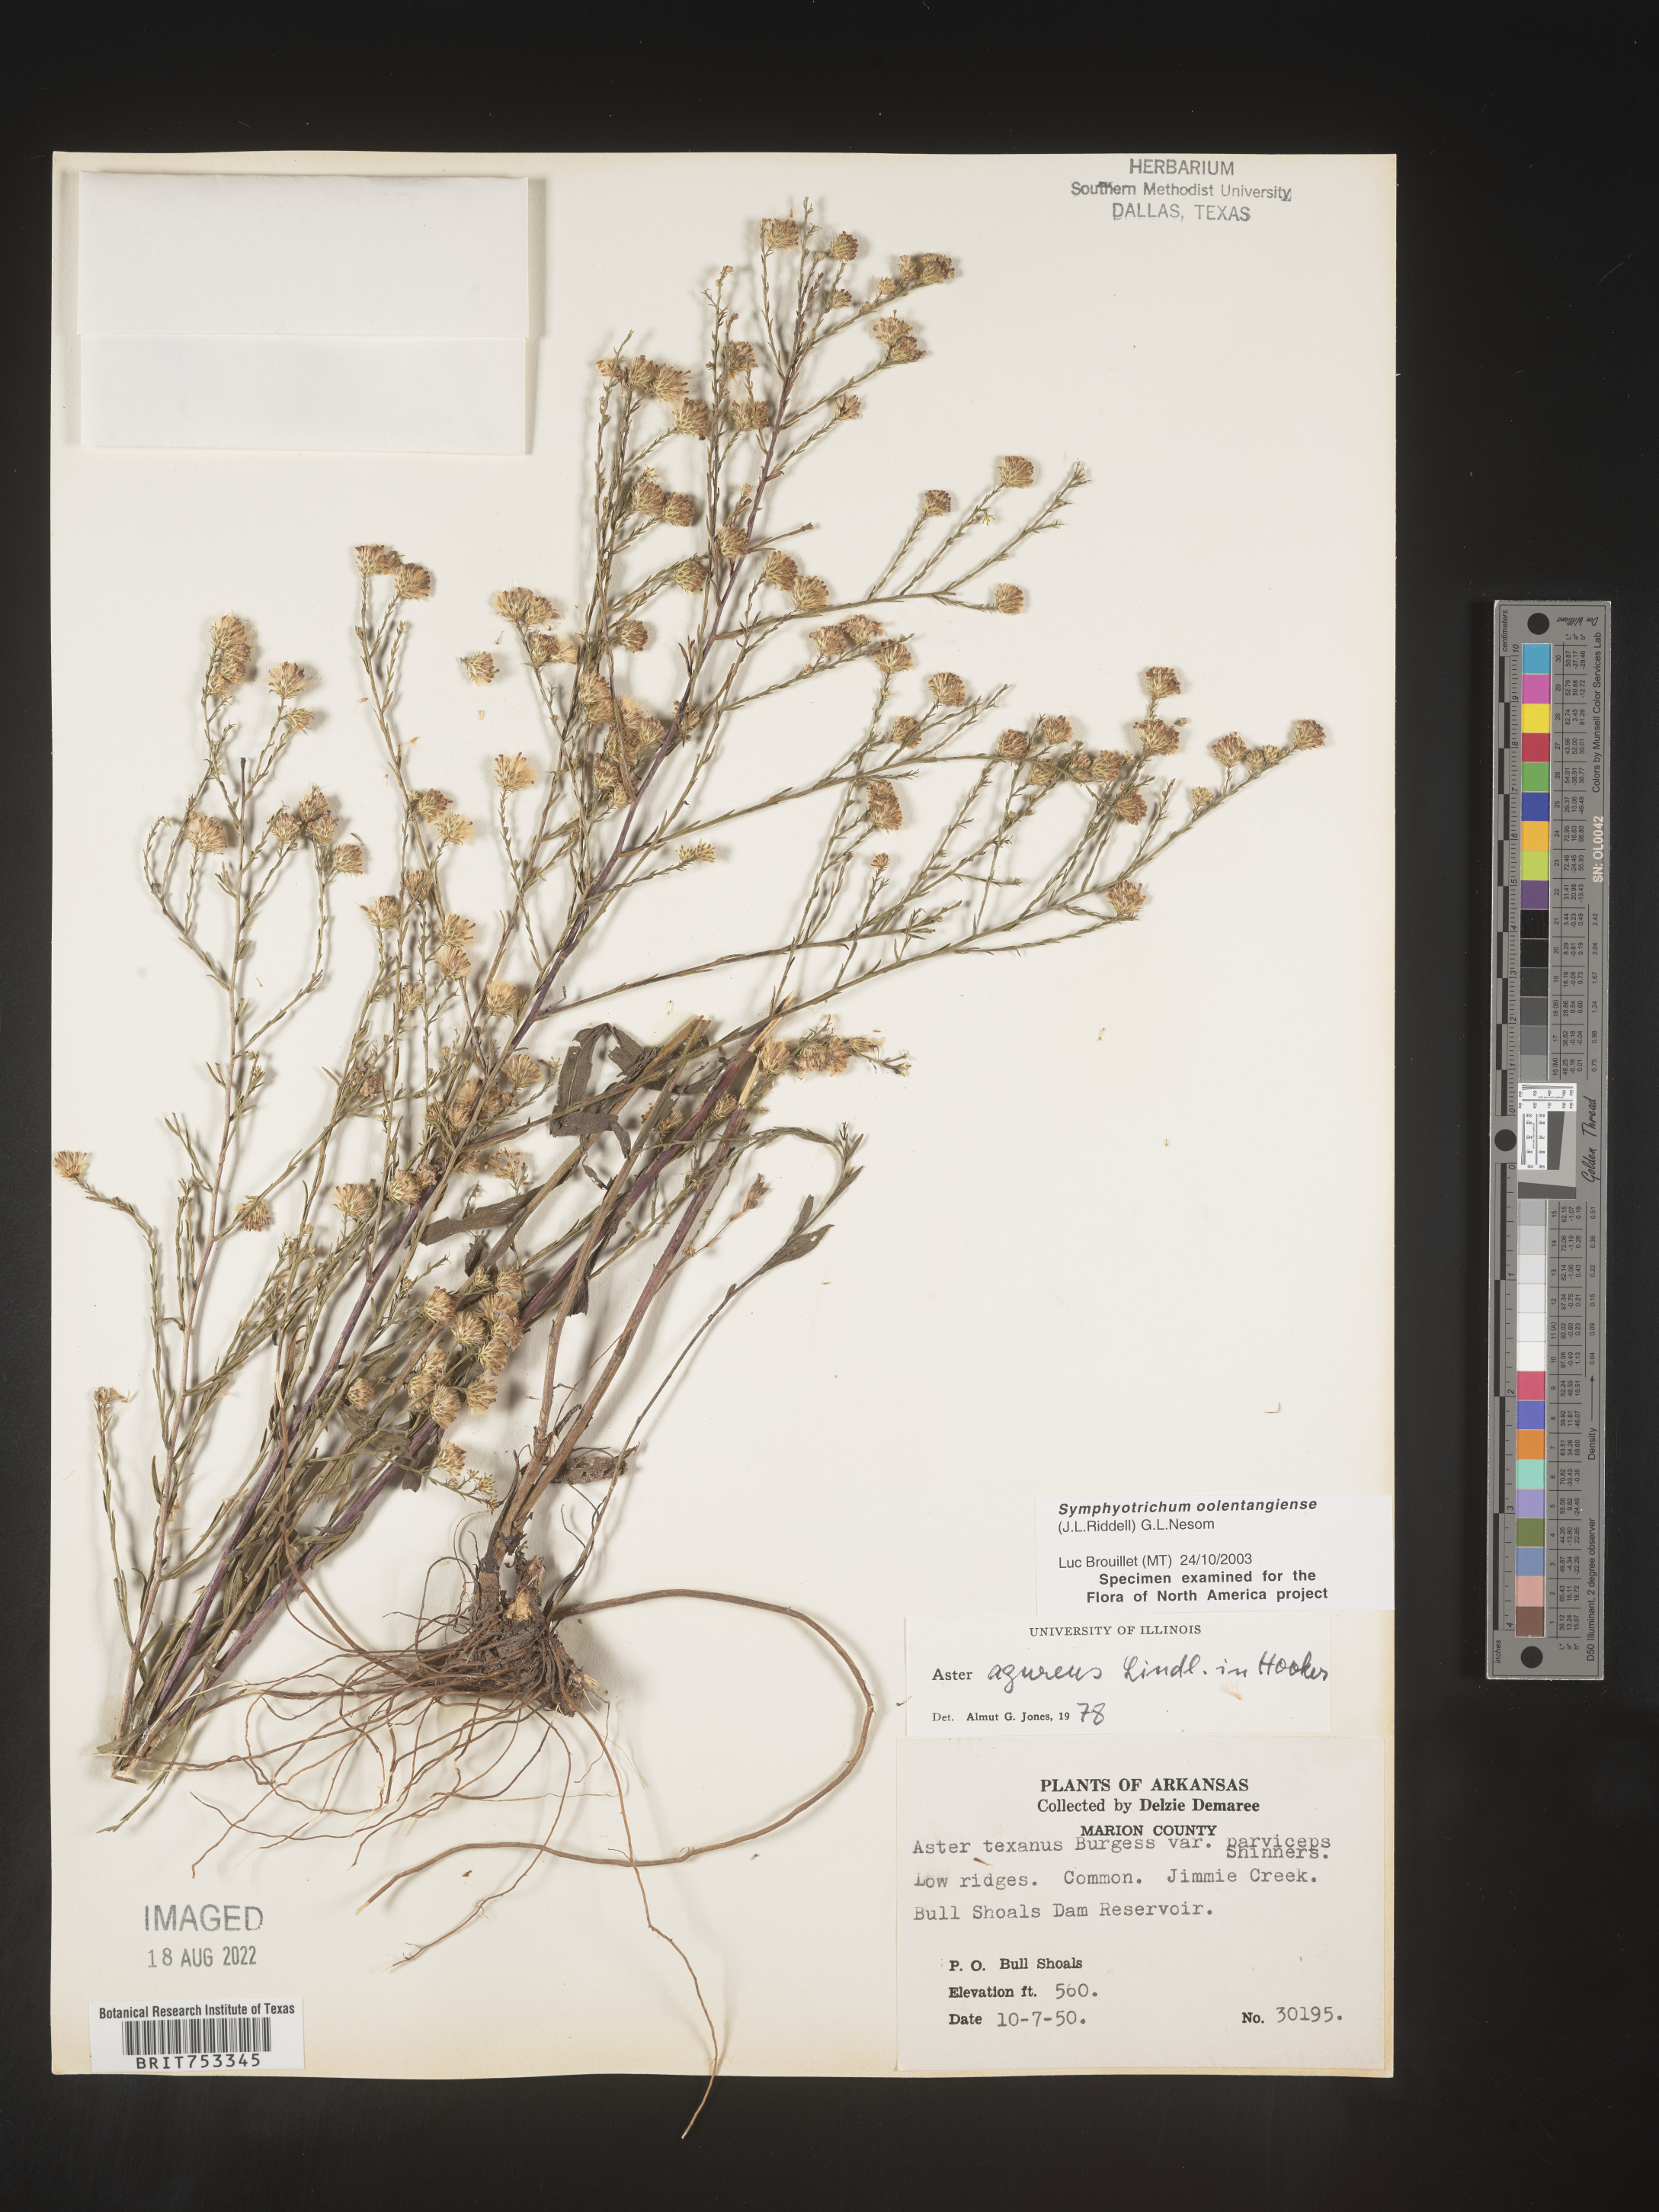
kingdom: Plantae
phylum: Tracheophyta
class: Magnoliopsida
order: Asterales
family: Asteraceae
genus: Symphyotrichum
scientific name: Symphyotrichum oolentangiense
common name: Azure aster
